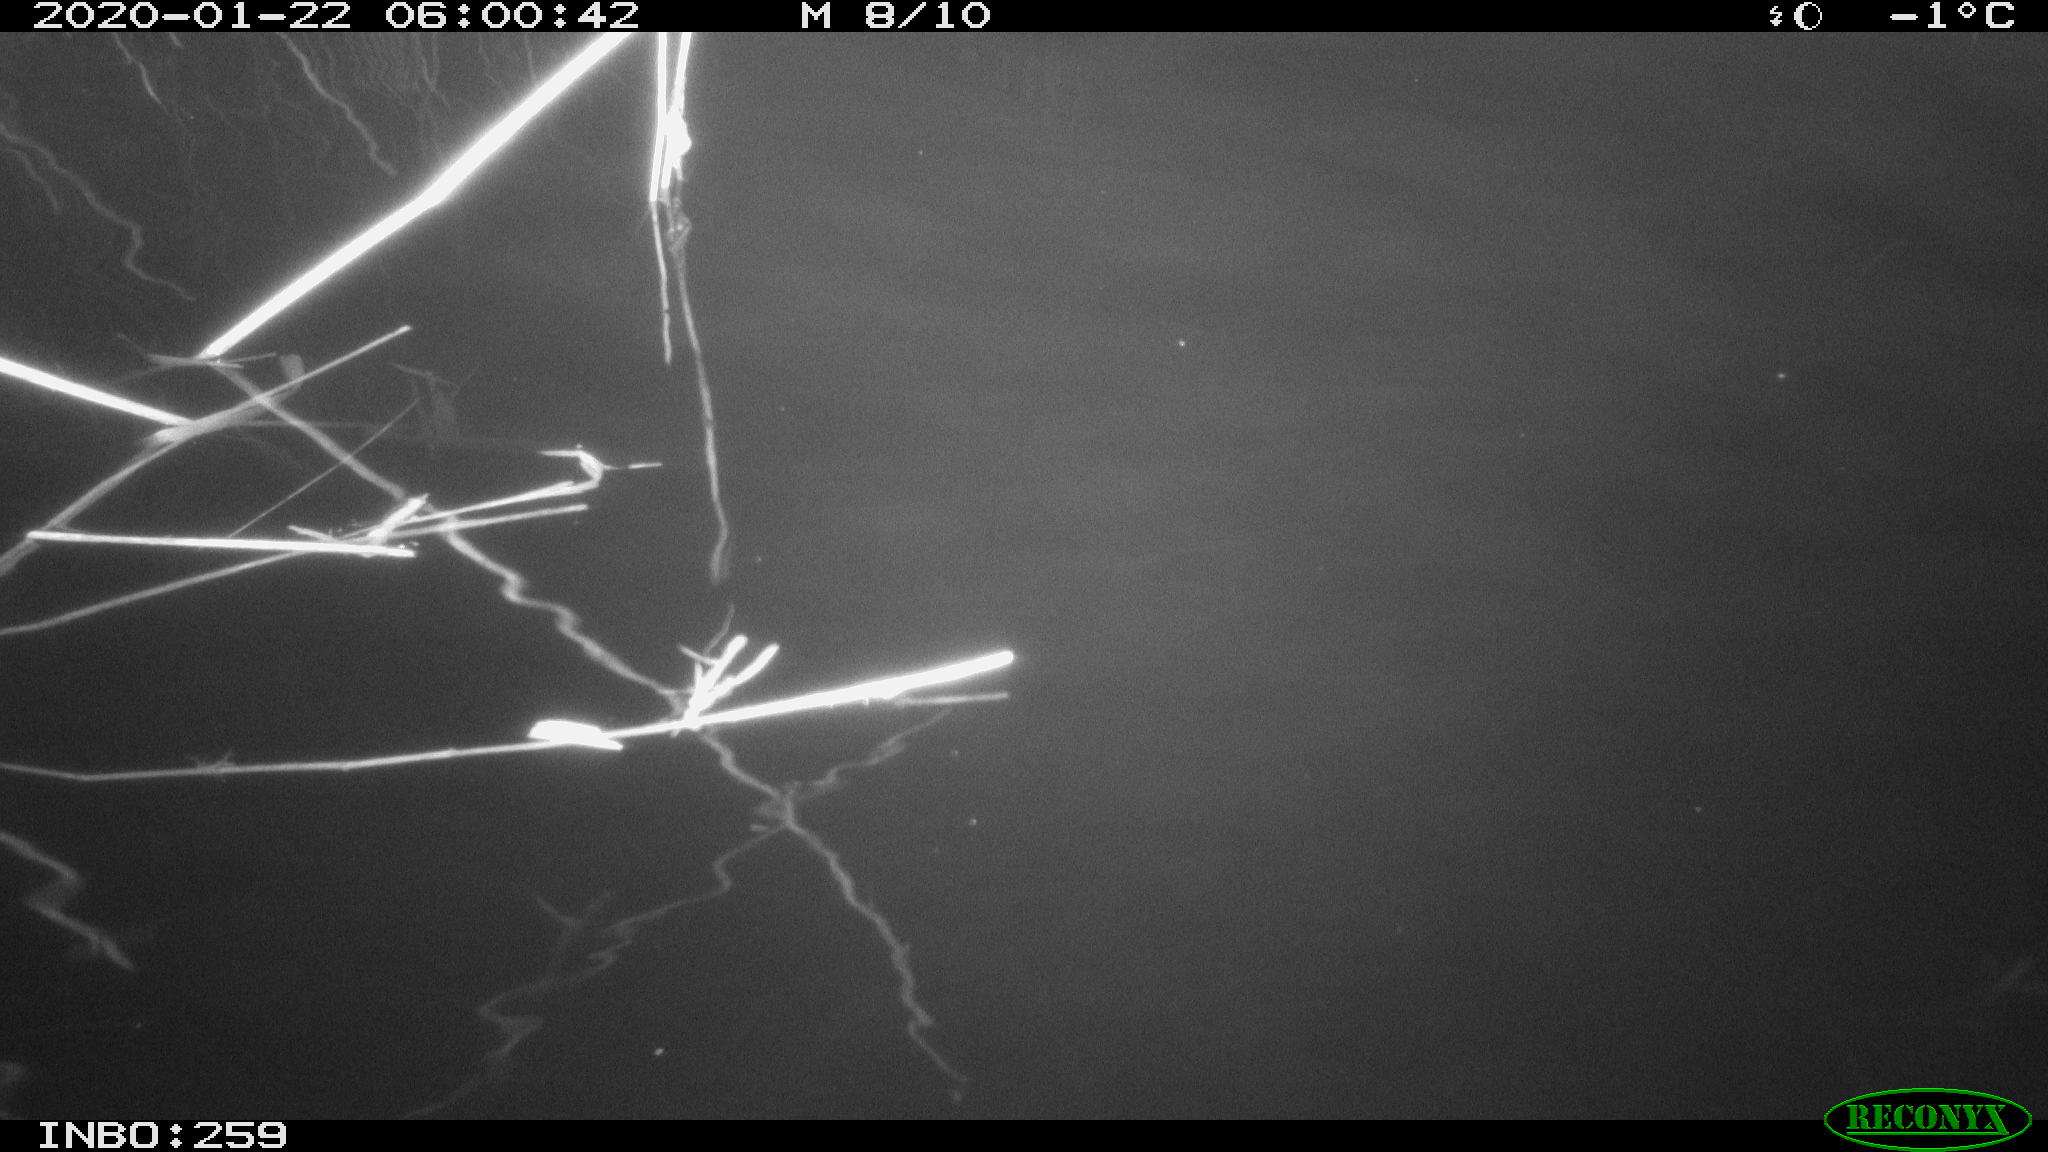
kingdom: Animalia
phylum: Chordata
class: Mammalia
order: Rodentia
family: Cricetidae
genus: Ondatra
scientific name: Ondatra zibethicus
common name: Muskrat
